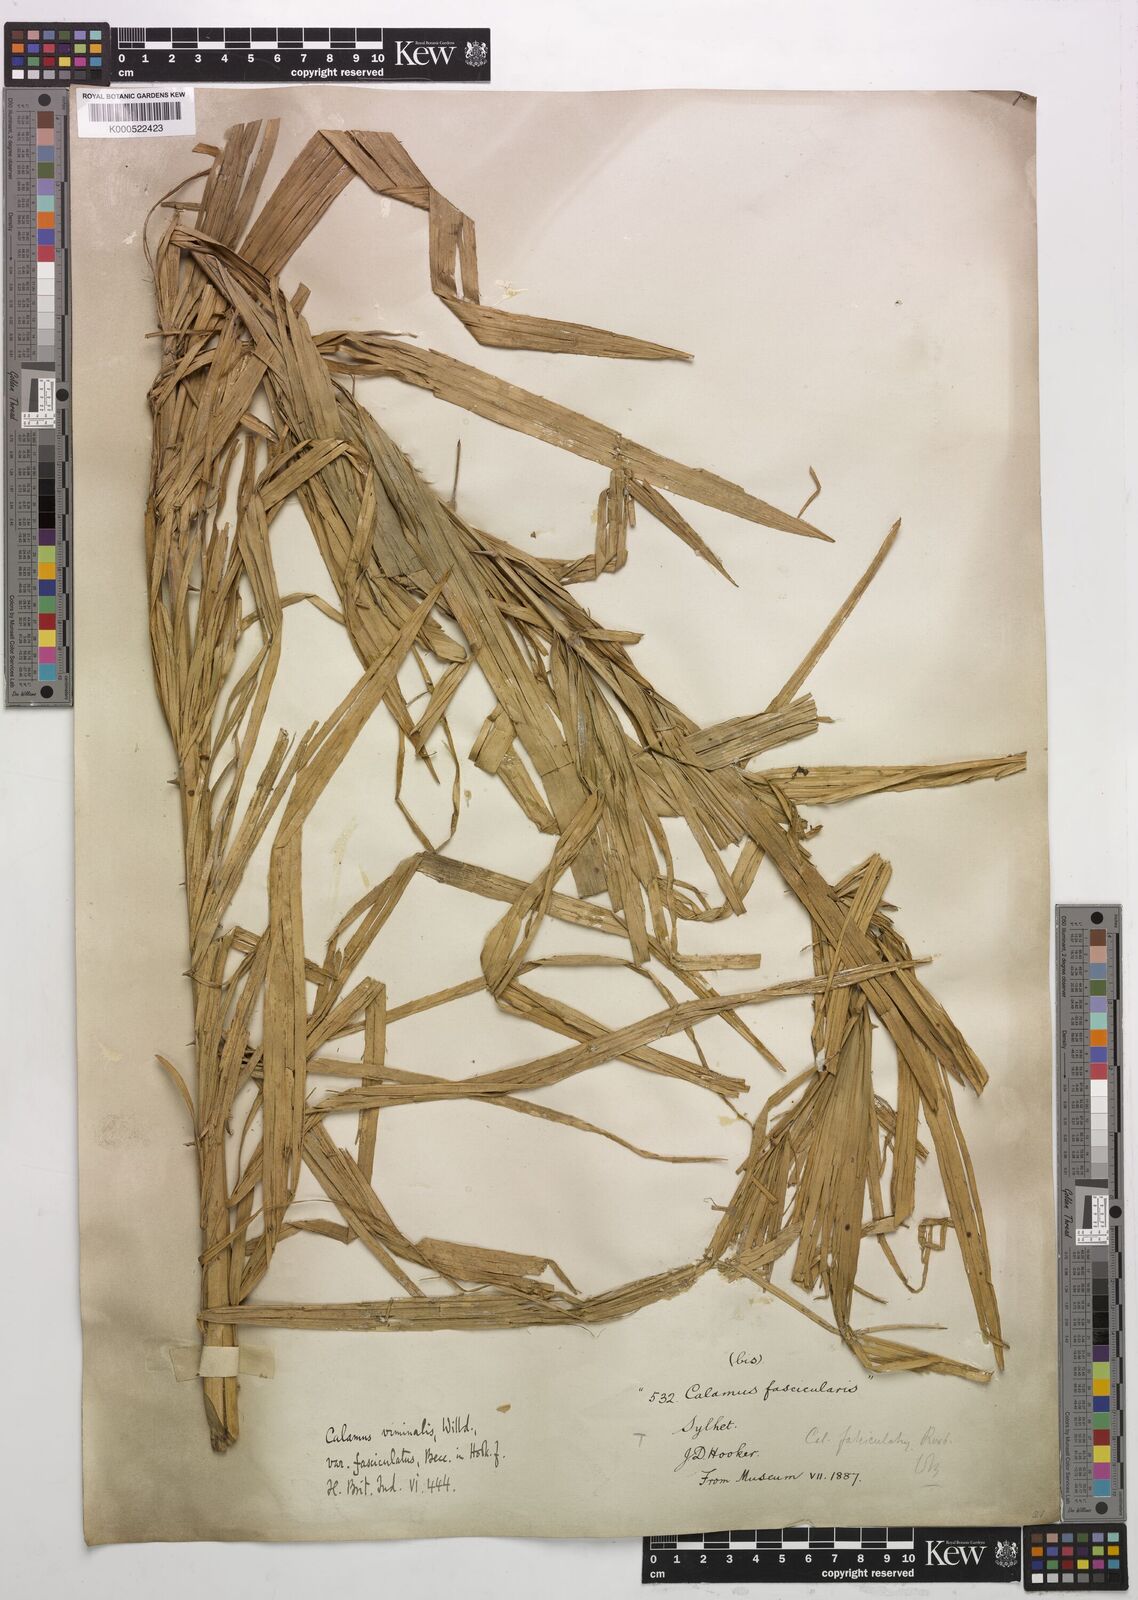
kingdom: Plantae
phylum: Tracheophyta
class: Liliopsida
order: Arecales
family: Arecaceae
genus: Calamus
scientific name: Calamus viminalis
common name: Osier-like rattan palm
